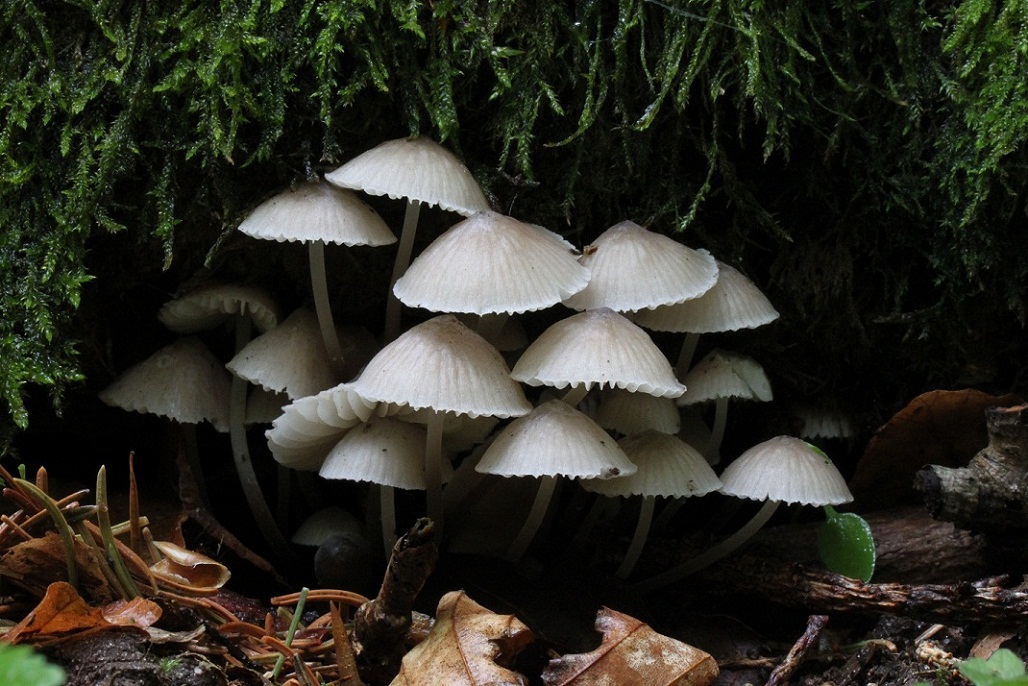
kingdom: Fungi
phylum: Basidiomycota
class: Agaricomycetes
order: Agaricales
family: Mycenaceae
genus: Mycena
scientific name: Mycena abramsii
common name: sommer-huesvamp
